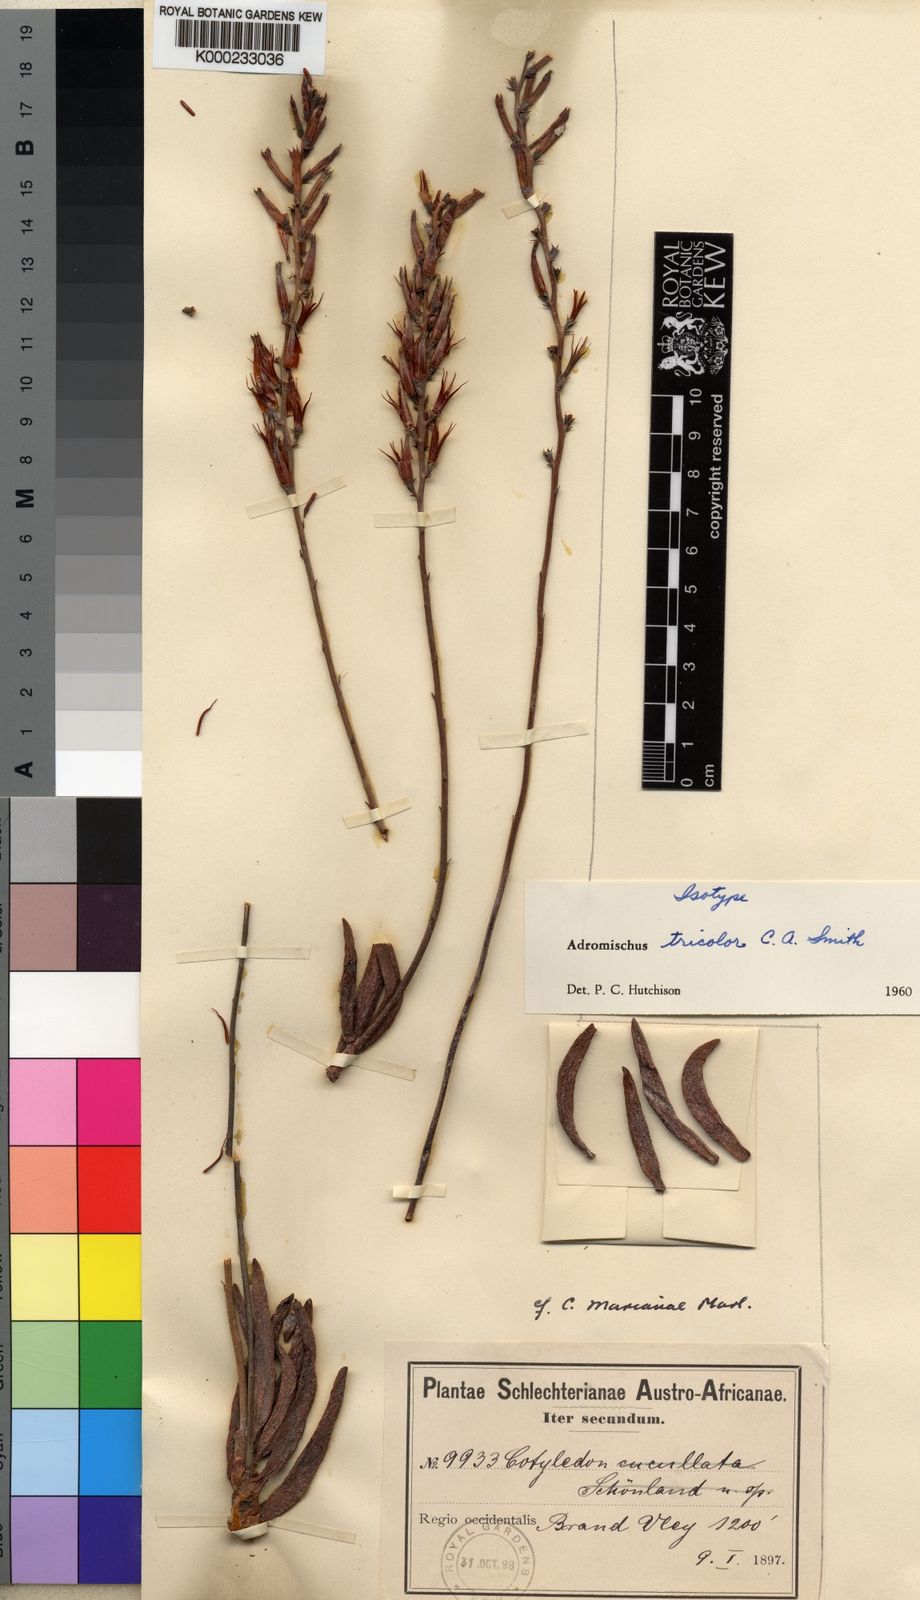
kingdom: Plantae
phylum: Tracheophyta
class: Magnoliopsida
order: Saxifragales
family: Crassulaceae
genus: Adromischus
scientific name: Adromischus filicaulis
